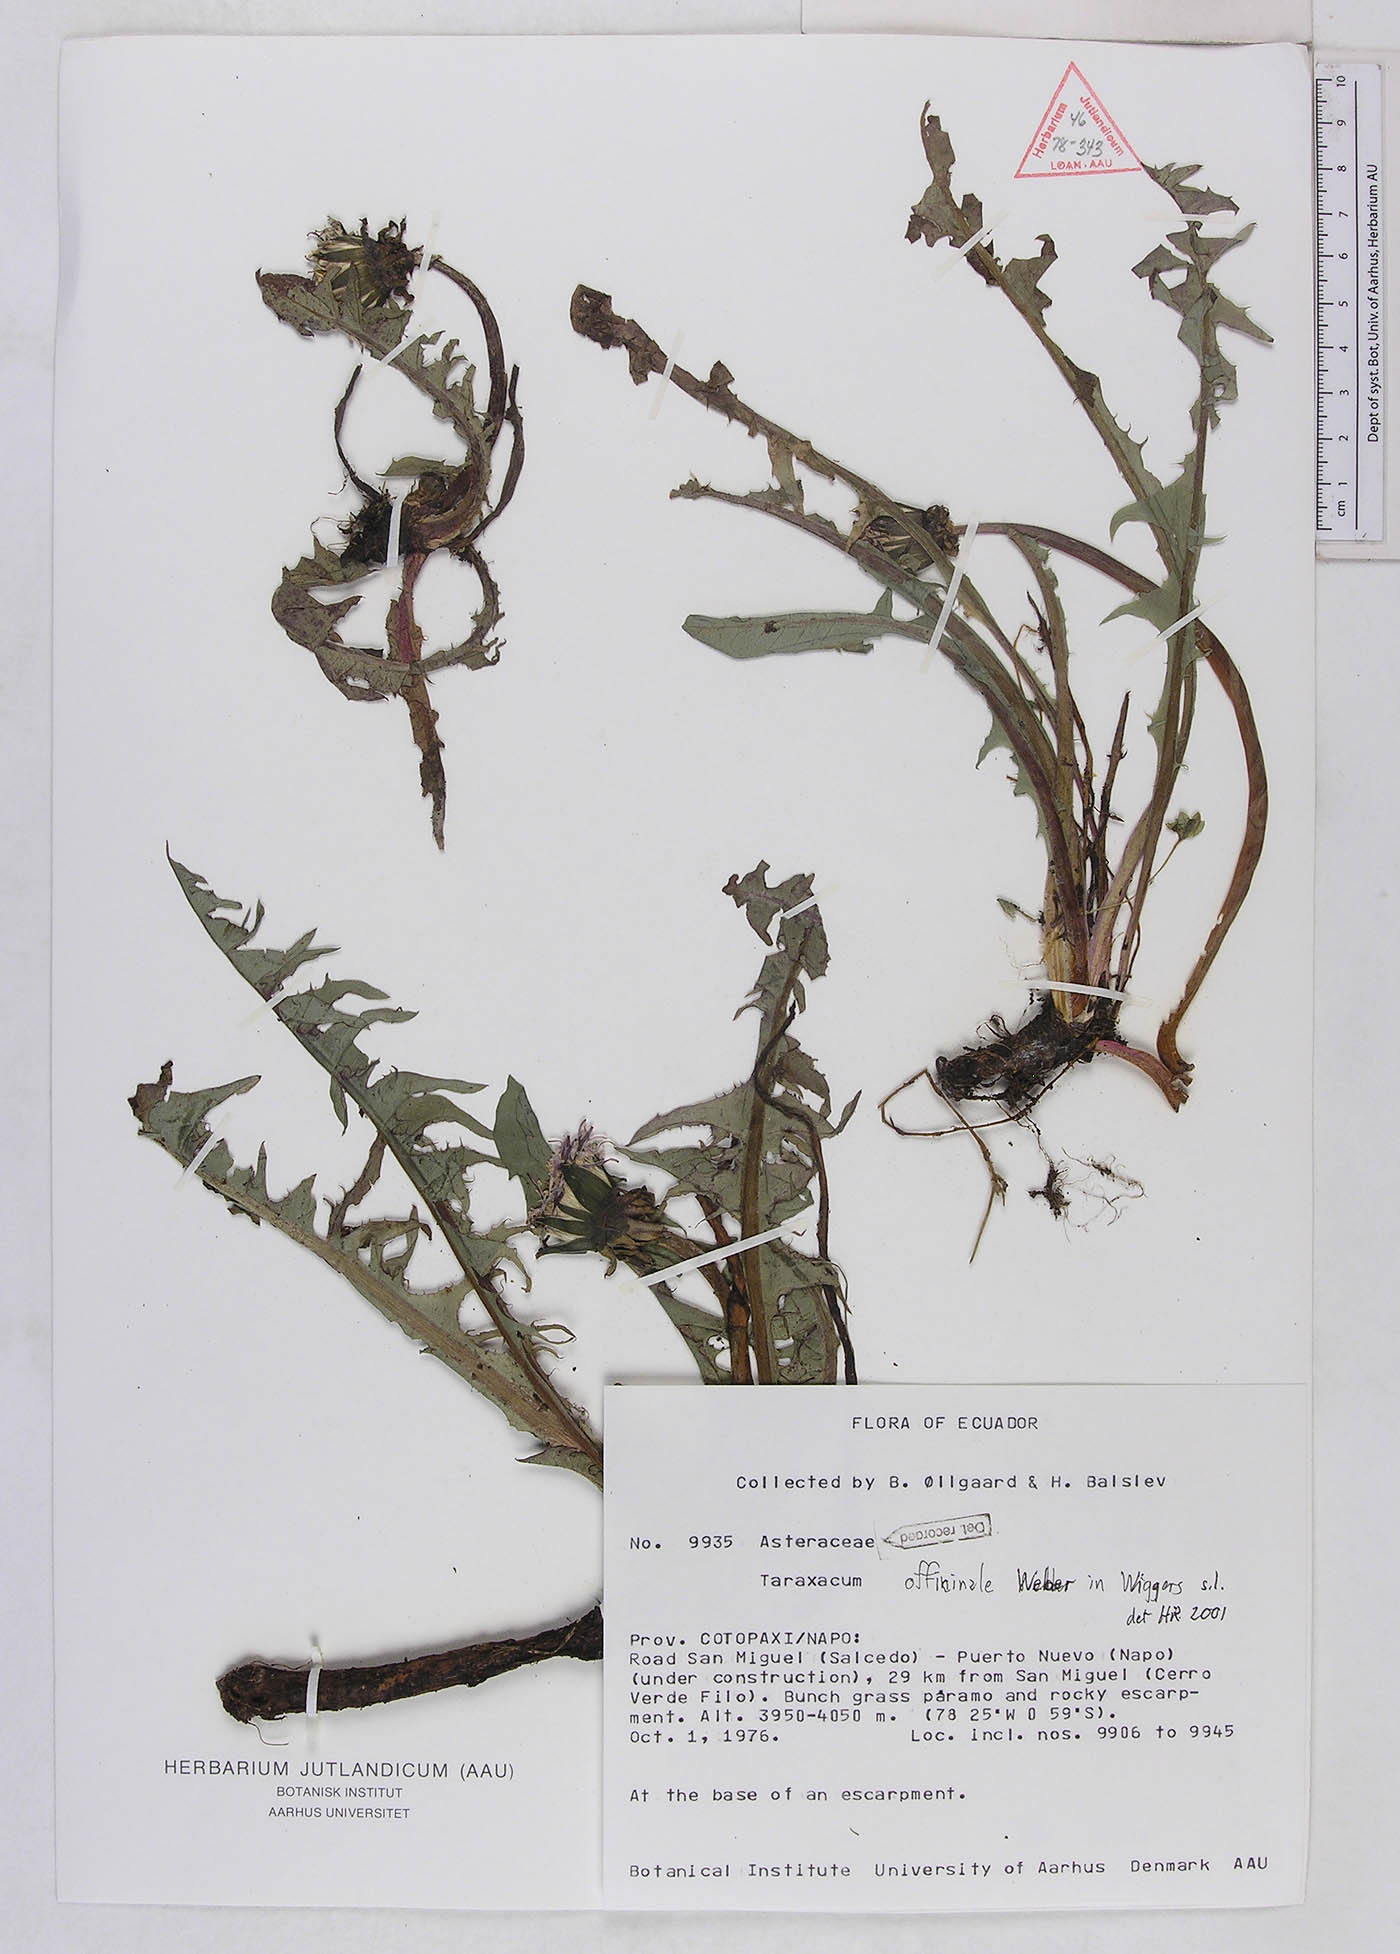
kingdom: Plantae
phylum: Tracheophyta
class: Magnoliopsida
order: Asterales
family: Asteraceae
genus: Taraxacum
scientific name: Taraxacum officinale
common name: Common dandelion
